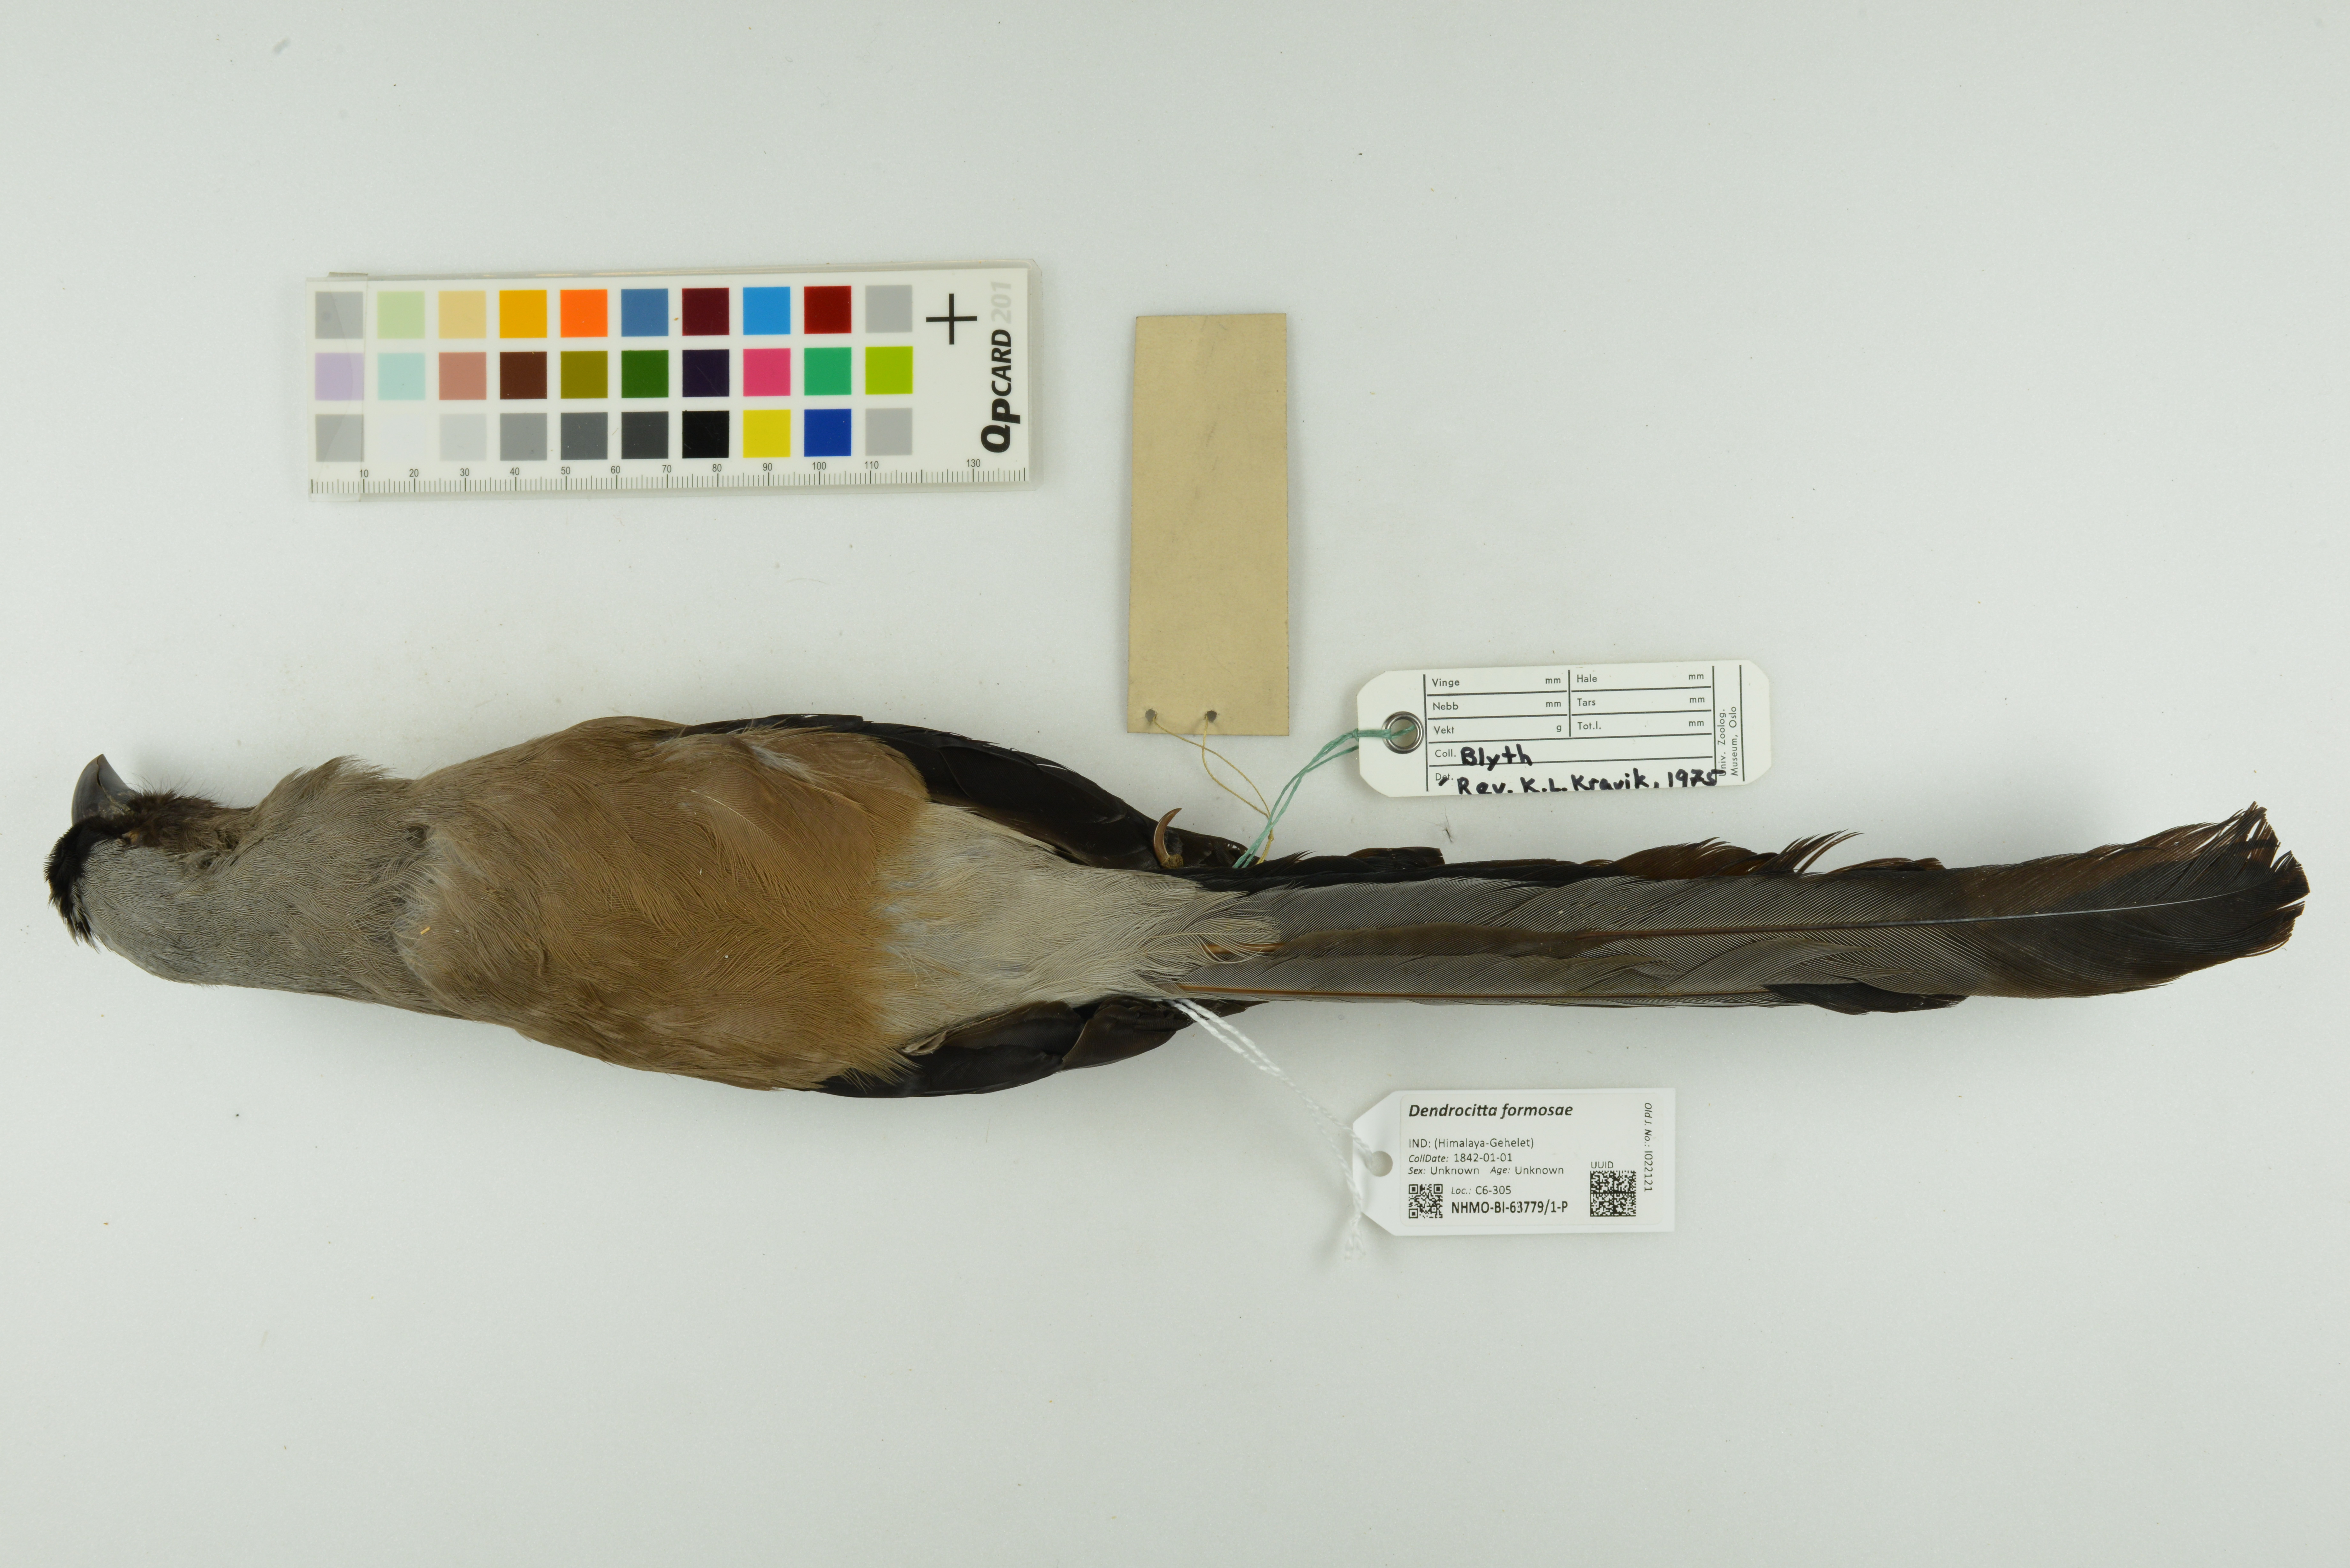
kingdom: Animalia
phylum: Chordata
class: Aves
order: Passeriformes
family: Corvidae
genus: Dendrocitta
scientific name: Dendrocitta formosae
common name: Grey treepie
